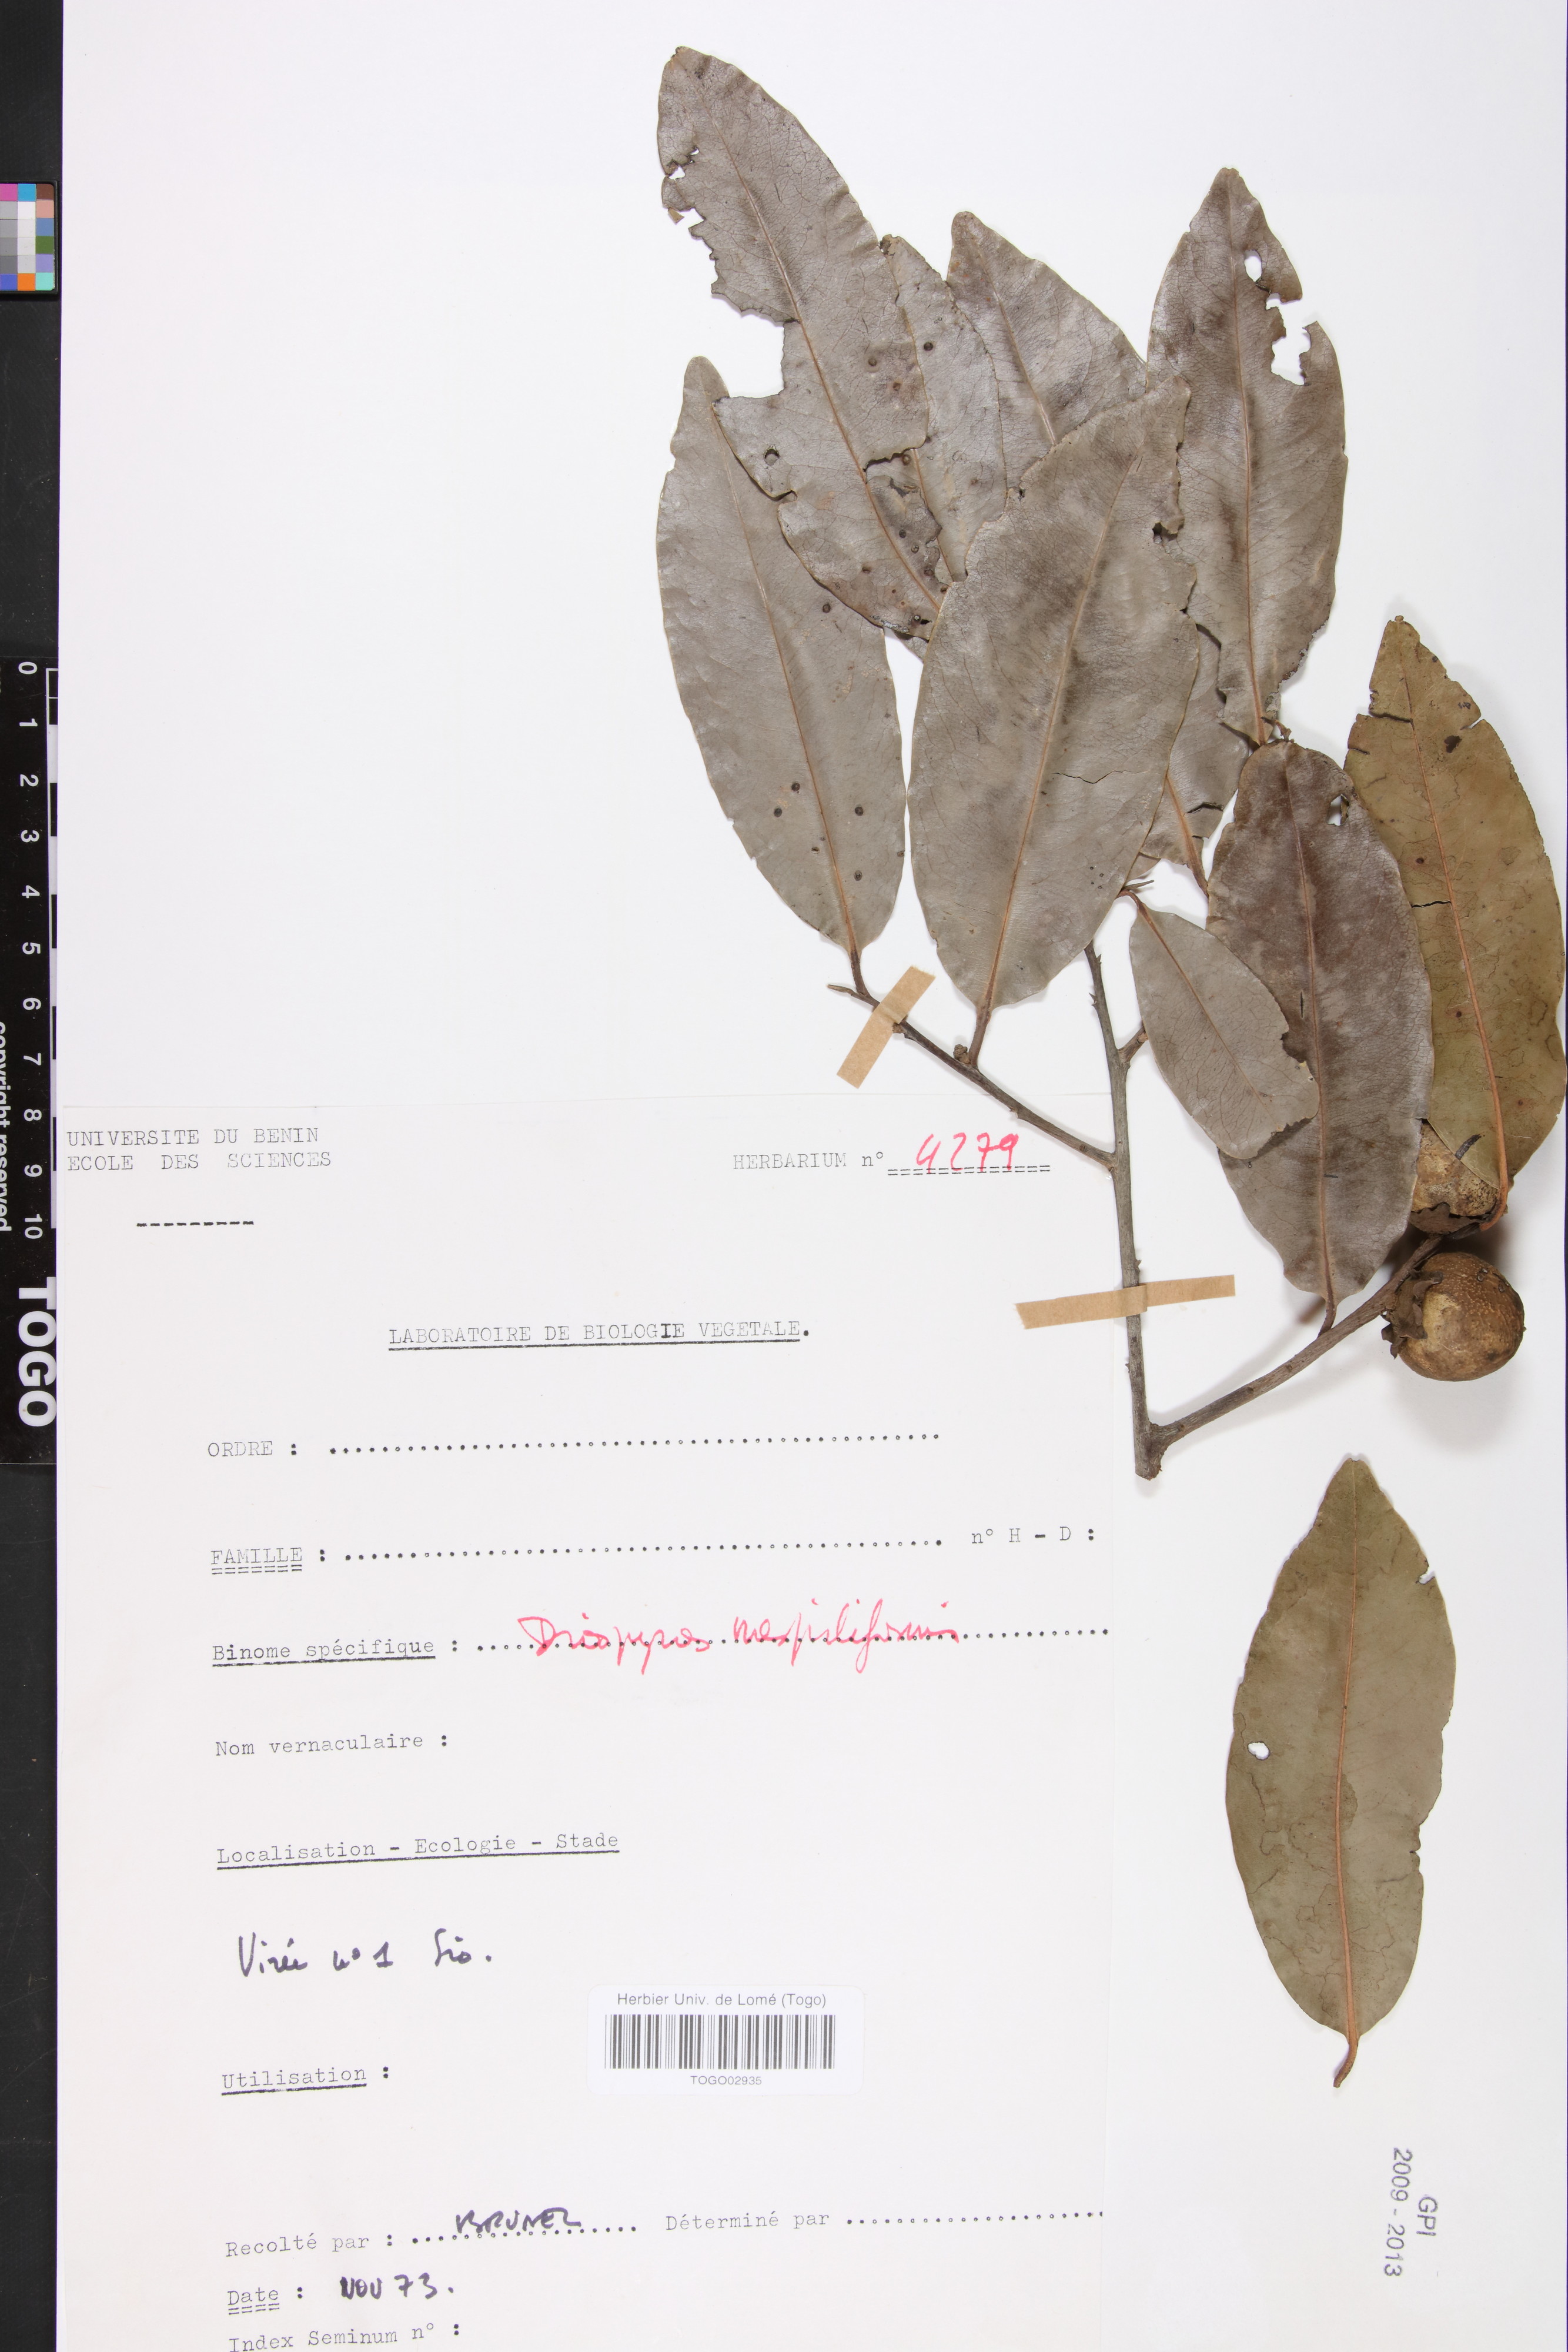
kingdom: Plantae
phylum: Tracheophyta
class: Magnoliopsida
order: Ericales
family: Ebenaceae
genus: Diospyros
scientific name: Diospyros mespiliformis
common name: Ebony diospyros
